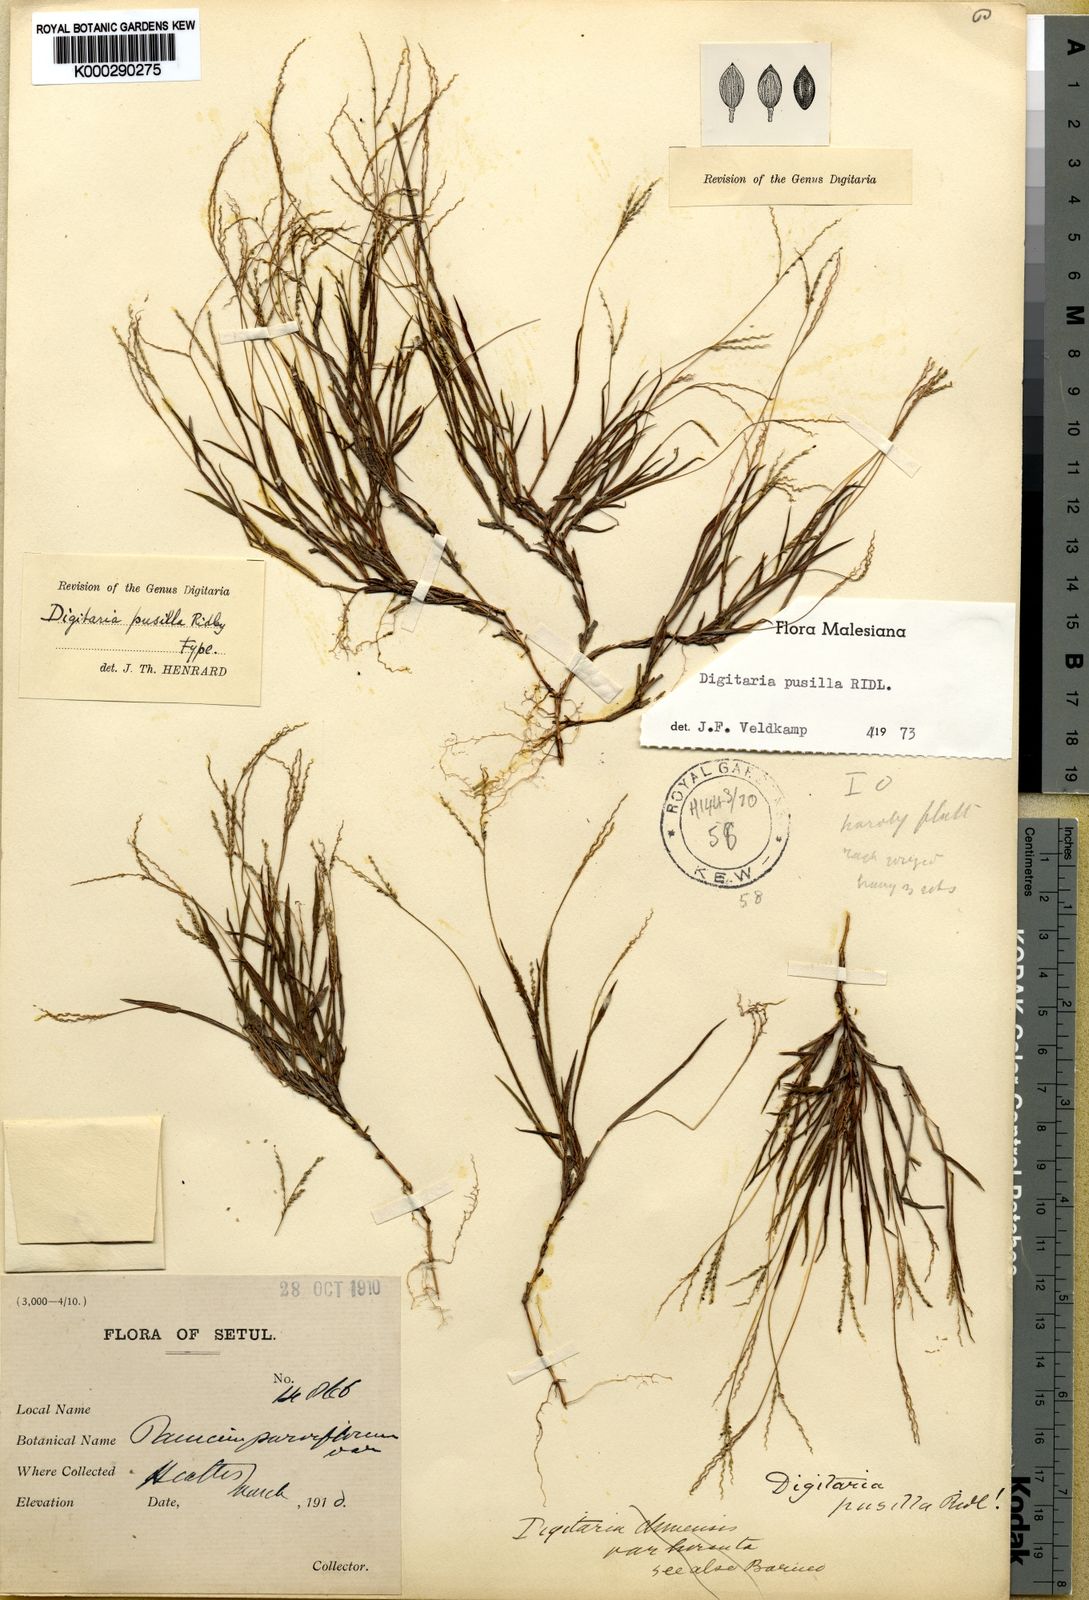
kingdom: Plantae
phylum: Tracheophyta
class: Liliopsida
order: Poales
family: Poaceae
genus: Digitaria
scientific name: Digitaria heterantha
